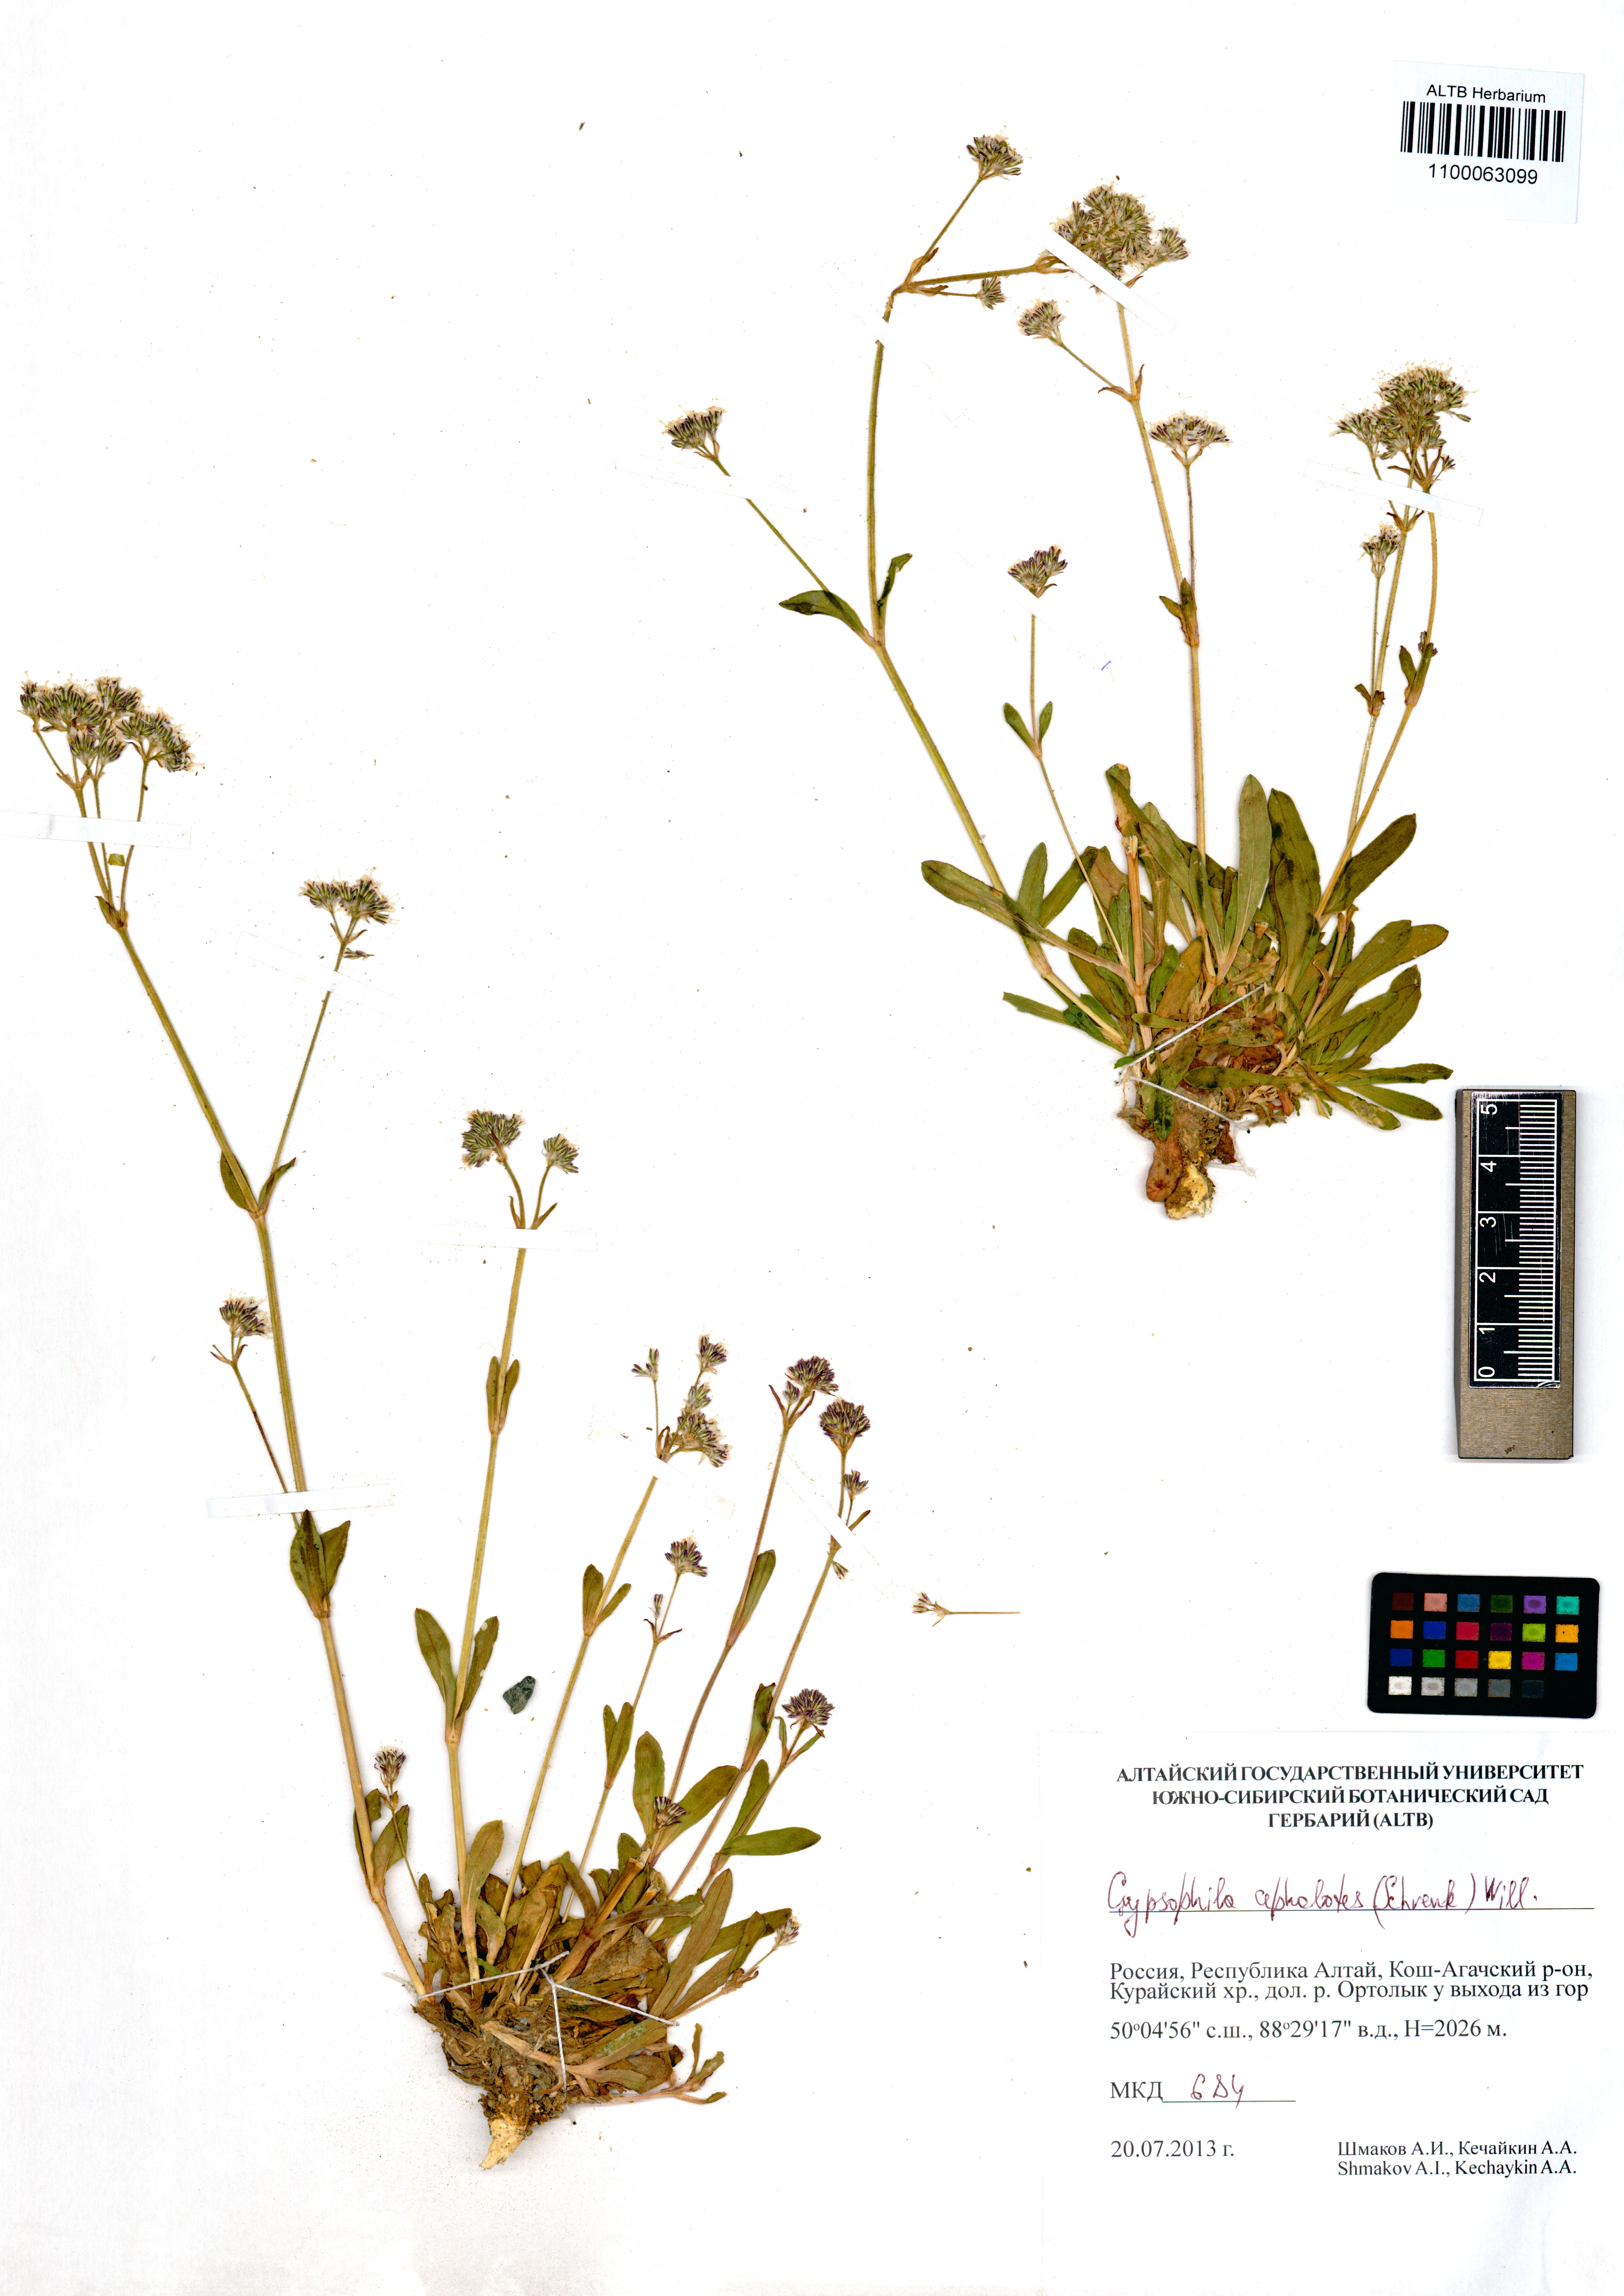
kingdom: Plantae
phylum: Tracheophyta
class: Magnoliopsida
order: Caryophyllales
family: Caryophyllaceae
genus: Gypsophila
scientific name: Gypsophila cephalotes
